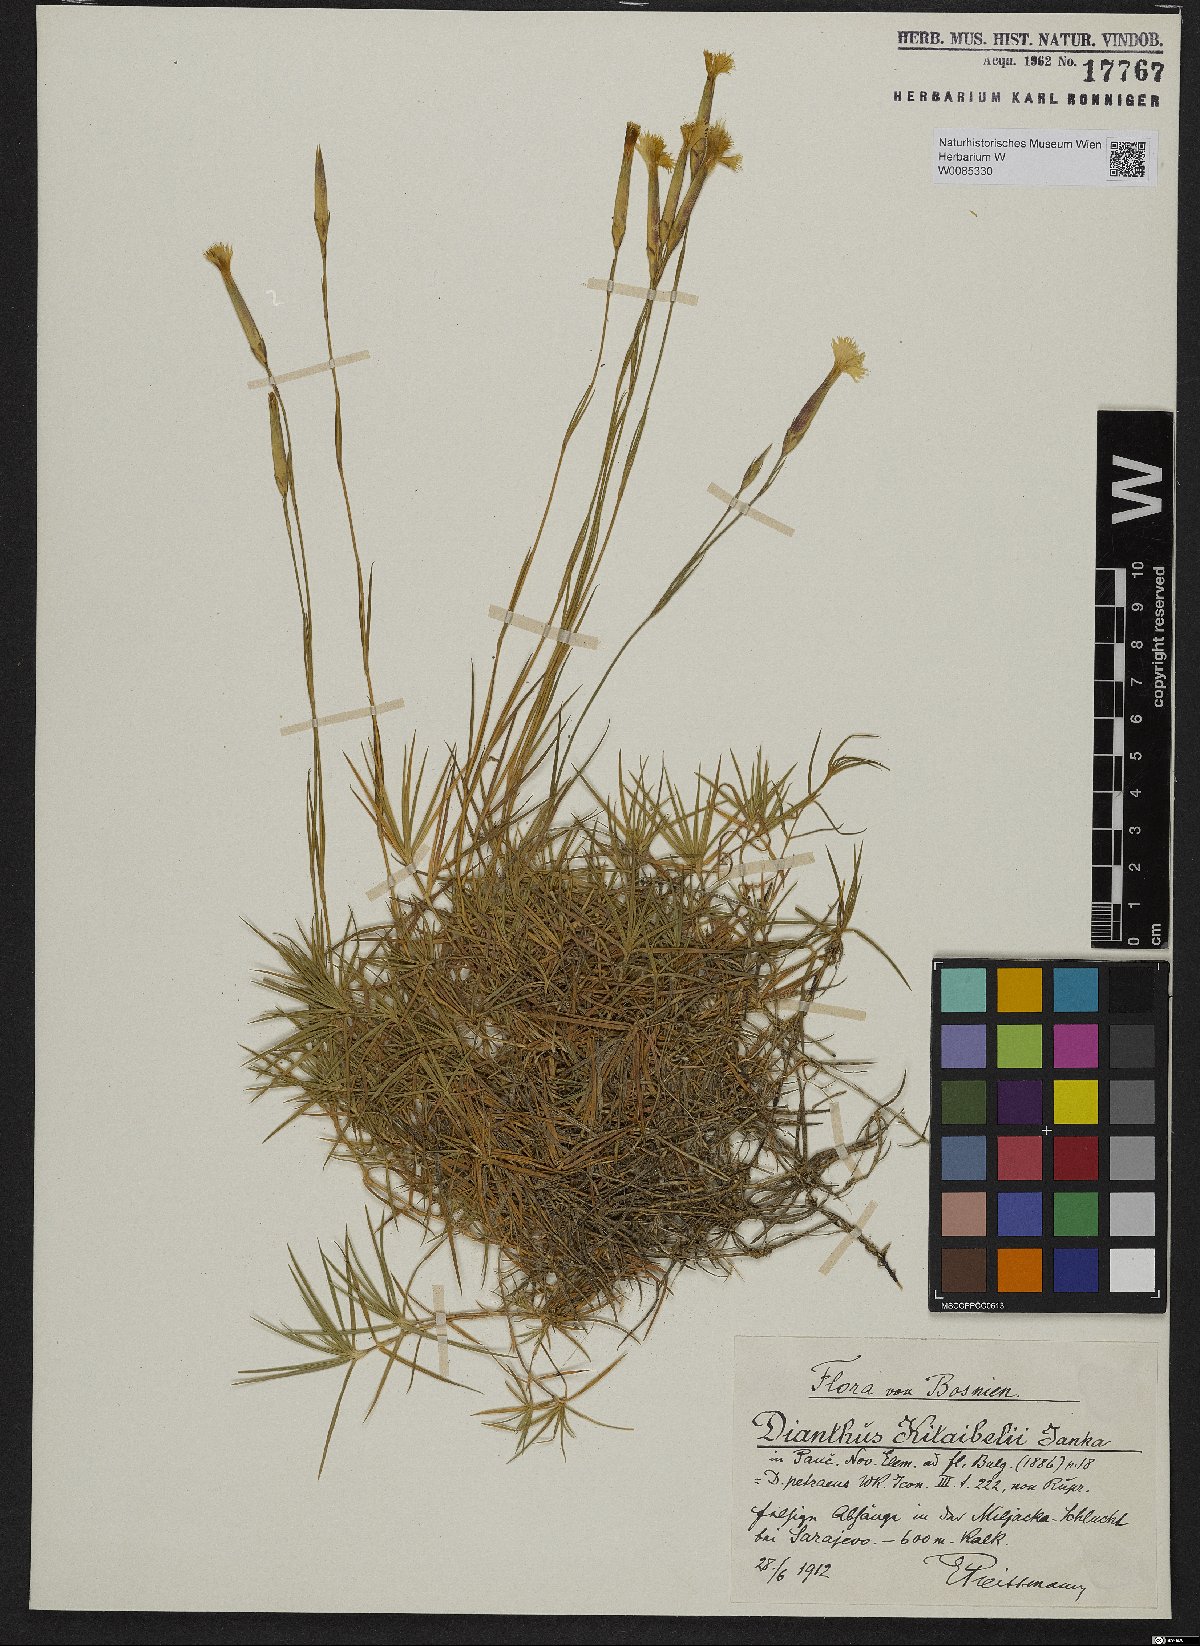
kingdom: Plantae
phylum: Tracheophyta
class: Magnoliopsida
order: Caryophyllales
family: Caryophyllaceae
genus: Dianthus
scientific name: Dianthus petraeus
